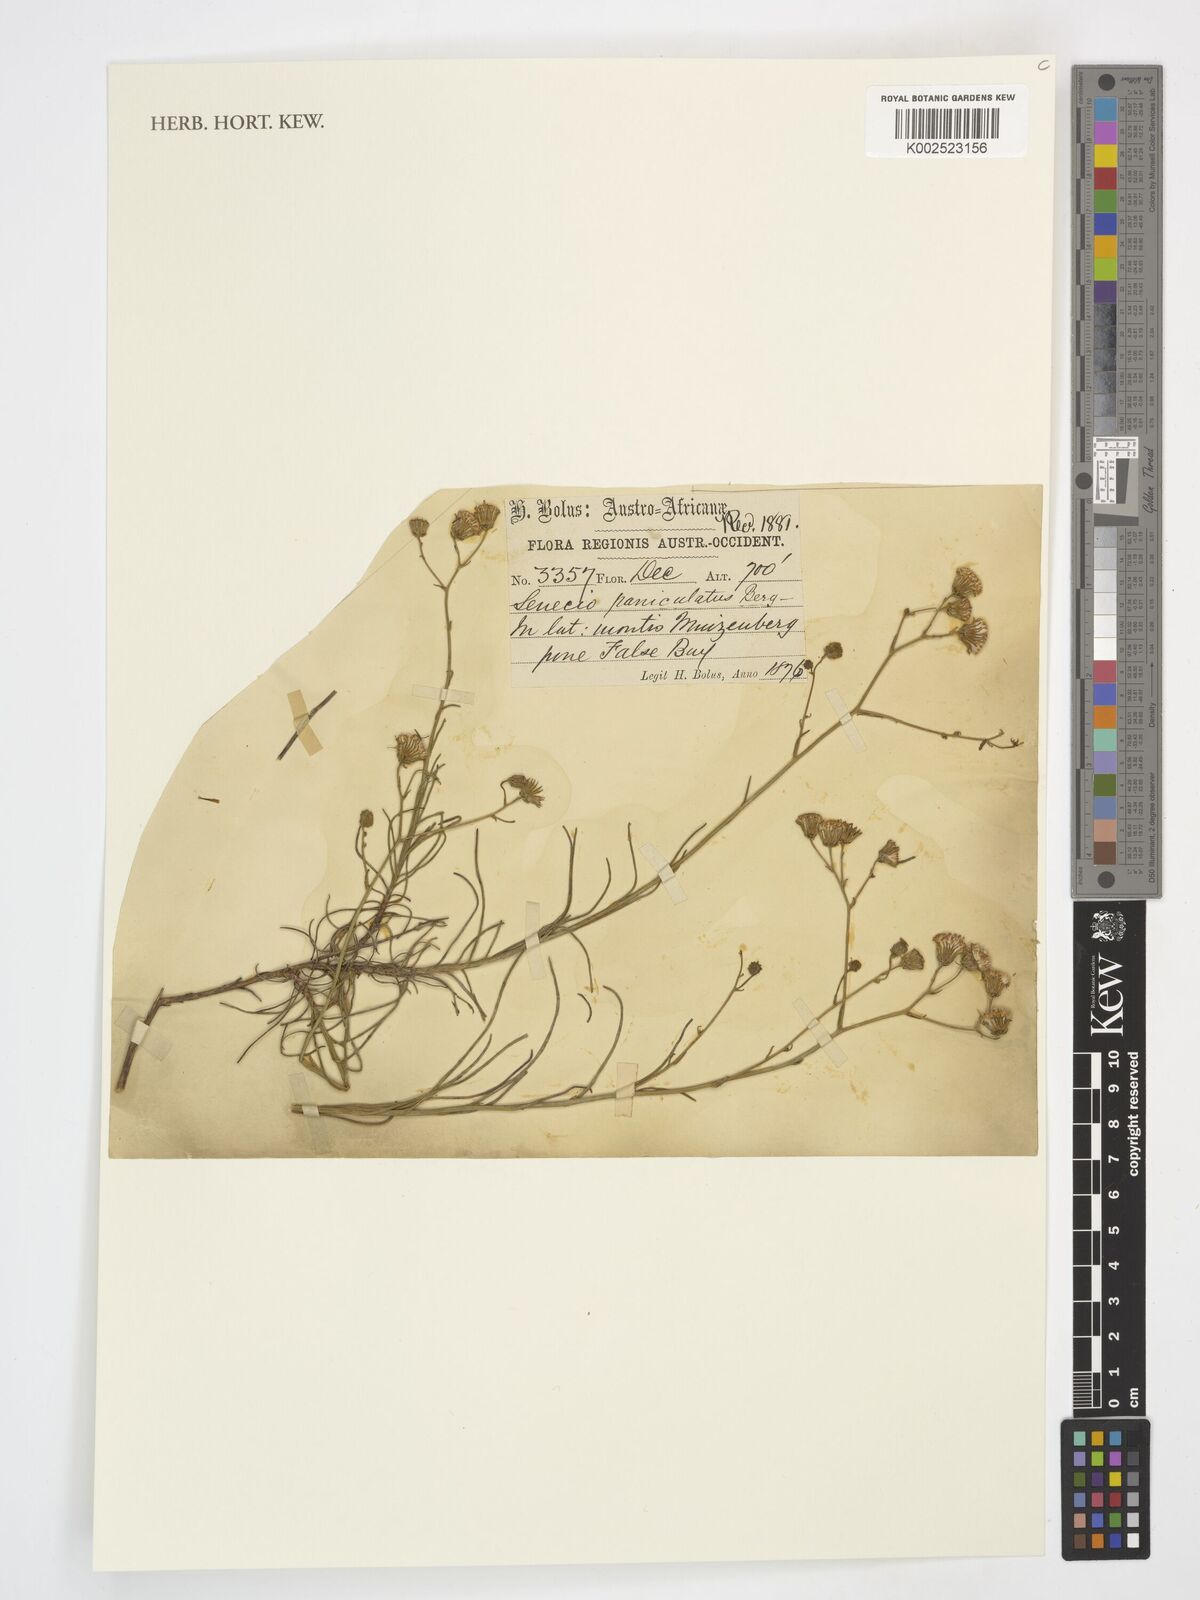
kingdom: Plantae
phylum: Tracheophyta
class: Magnoliopsida
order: Asterales
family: Asteraceae
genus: Senecio
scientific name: Senecio paniculatus
